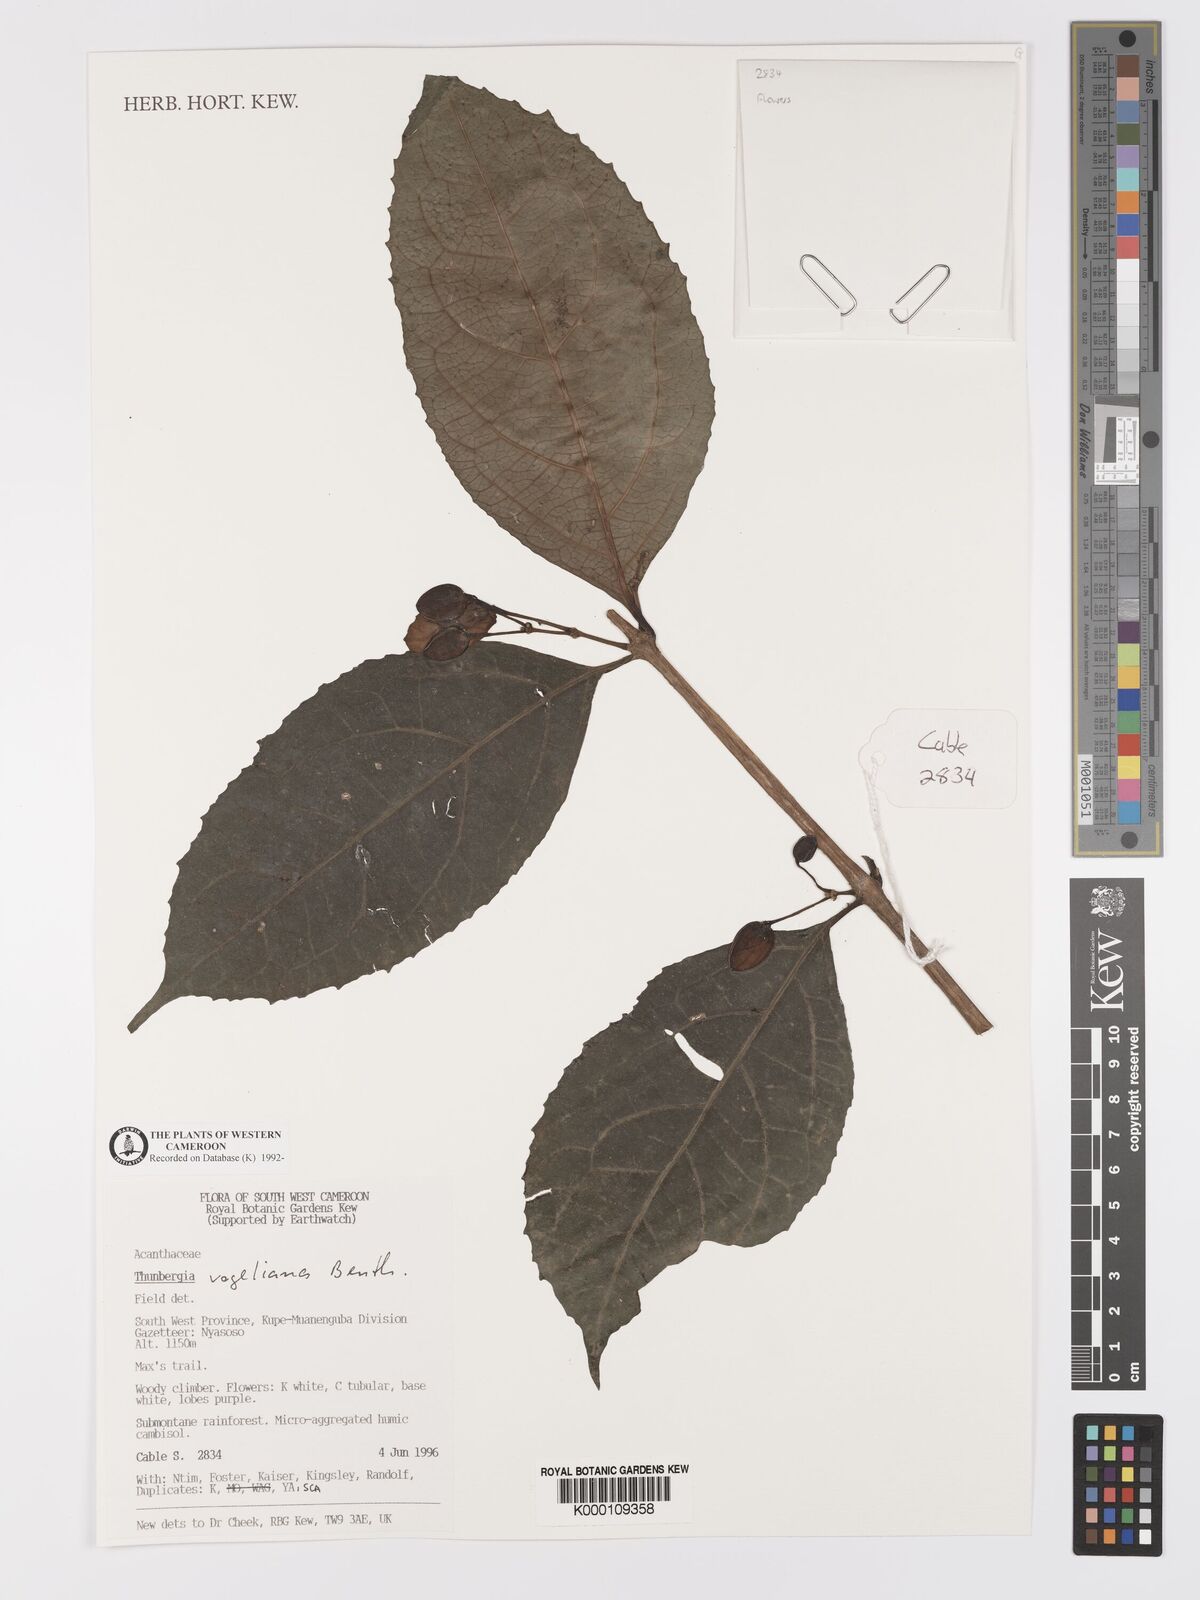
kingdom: Plantae
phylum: Tracheophyta
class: Magnoliopsida
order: Lamiales
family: Acanthaceae
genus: Thunbergia
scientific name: Thunbergia vogeliana
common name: Acanthaceae
